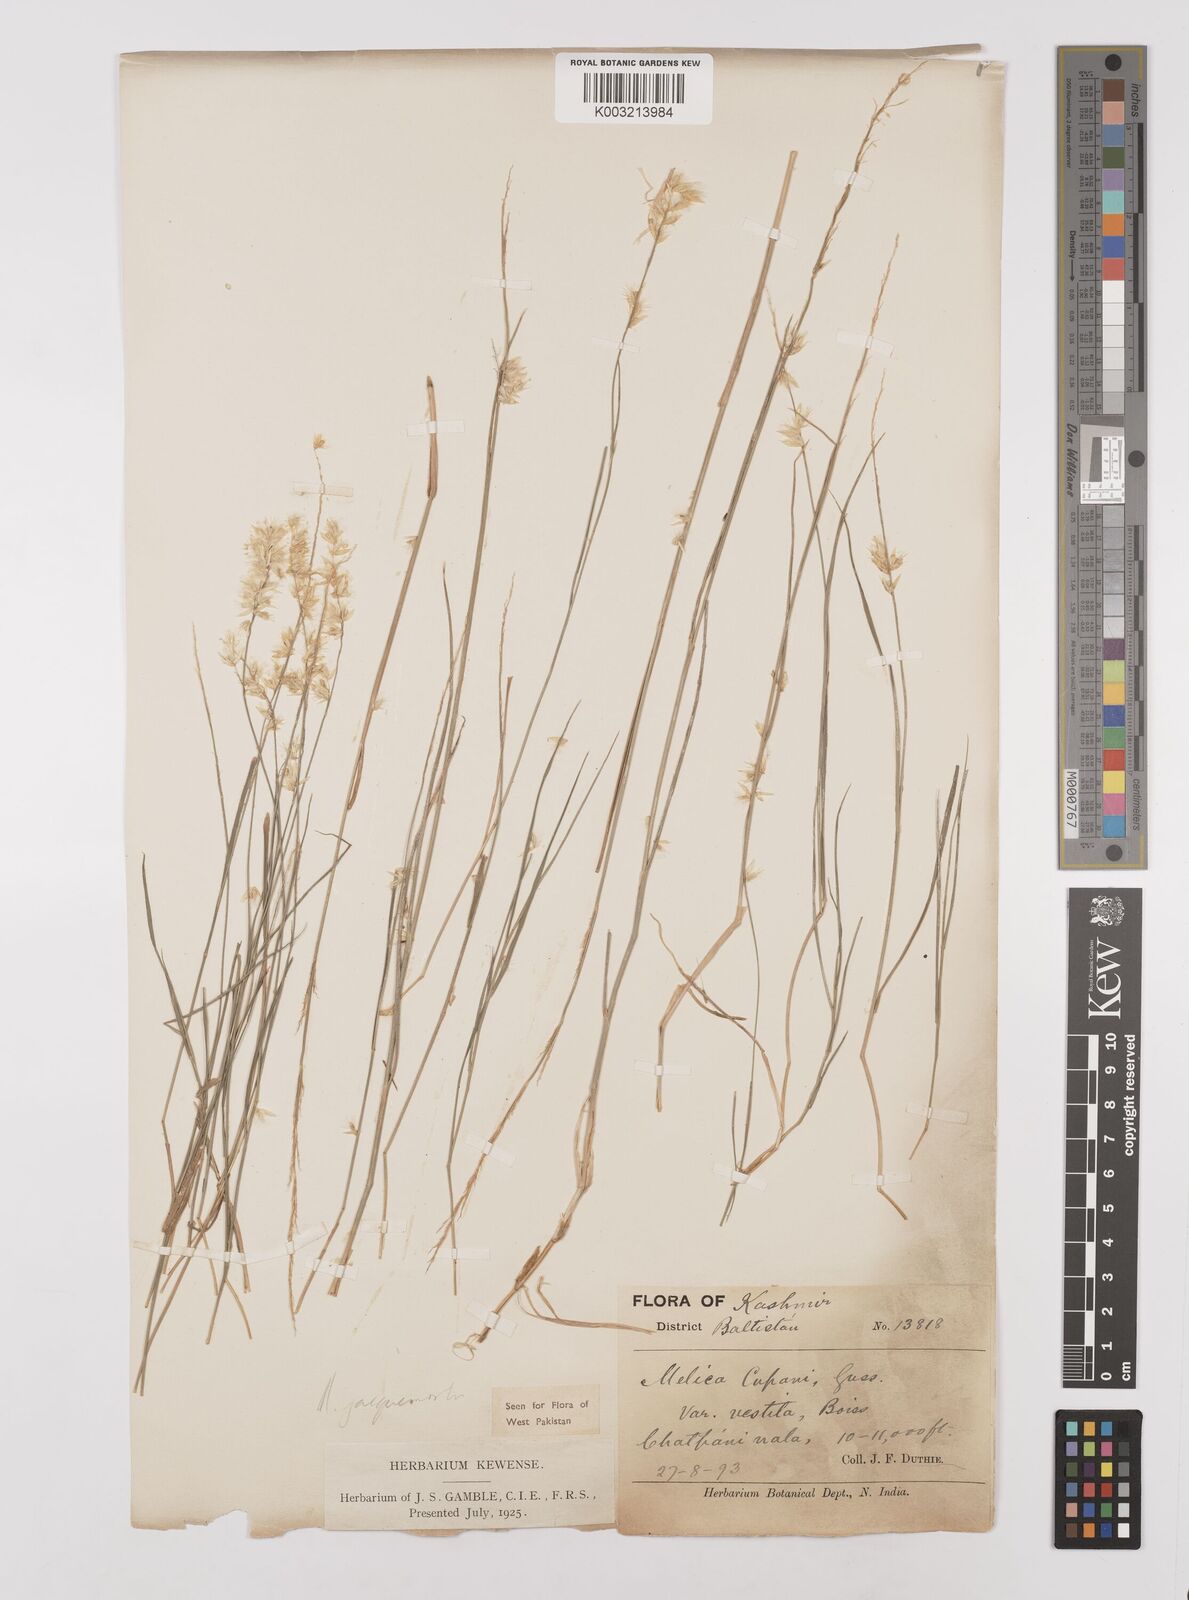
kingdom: Plantae
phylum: Tracheophyta
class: Liliopsida
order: Poales
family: Poaceae
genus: Melica
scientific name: Melica persica
